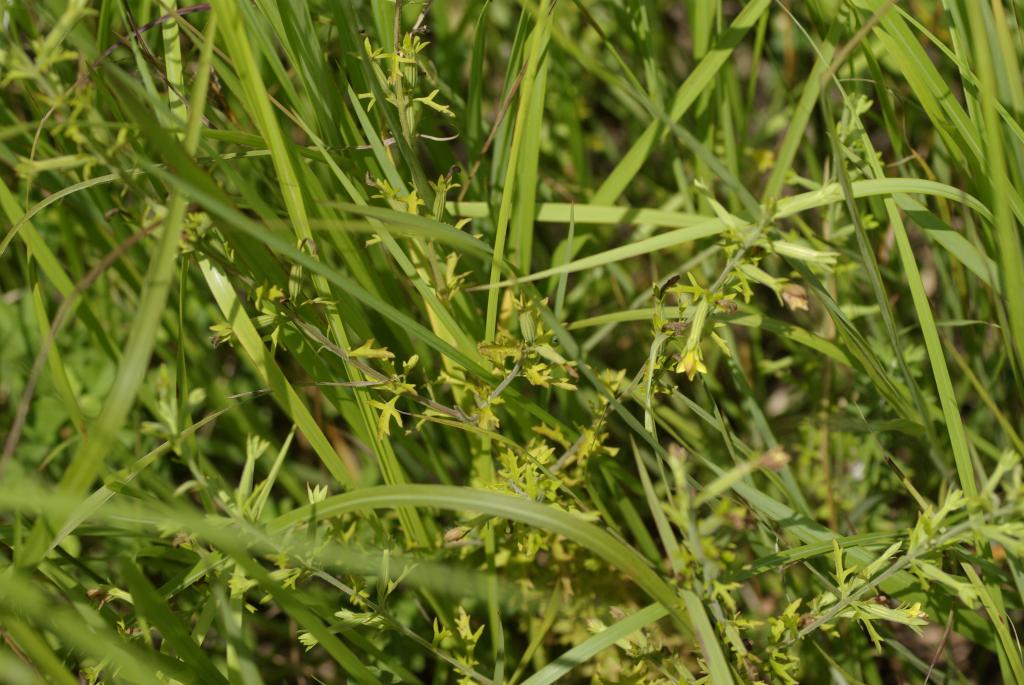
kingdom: Plantae
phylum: Tracheophyta
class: Magnoliopsida
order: Lamiales
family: Orobanchaceae
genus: Siphonostegia
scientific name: Siphonostegia chinensis
